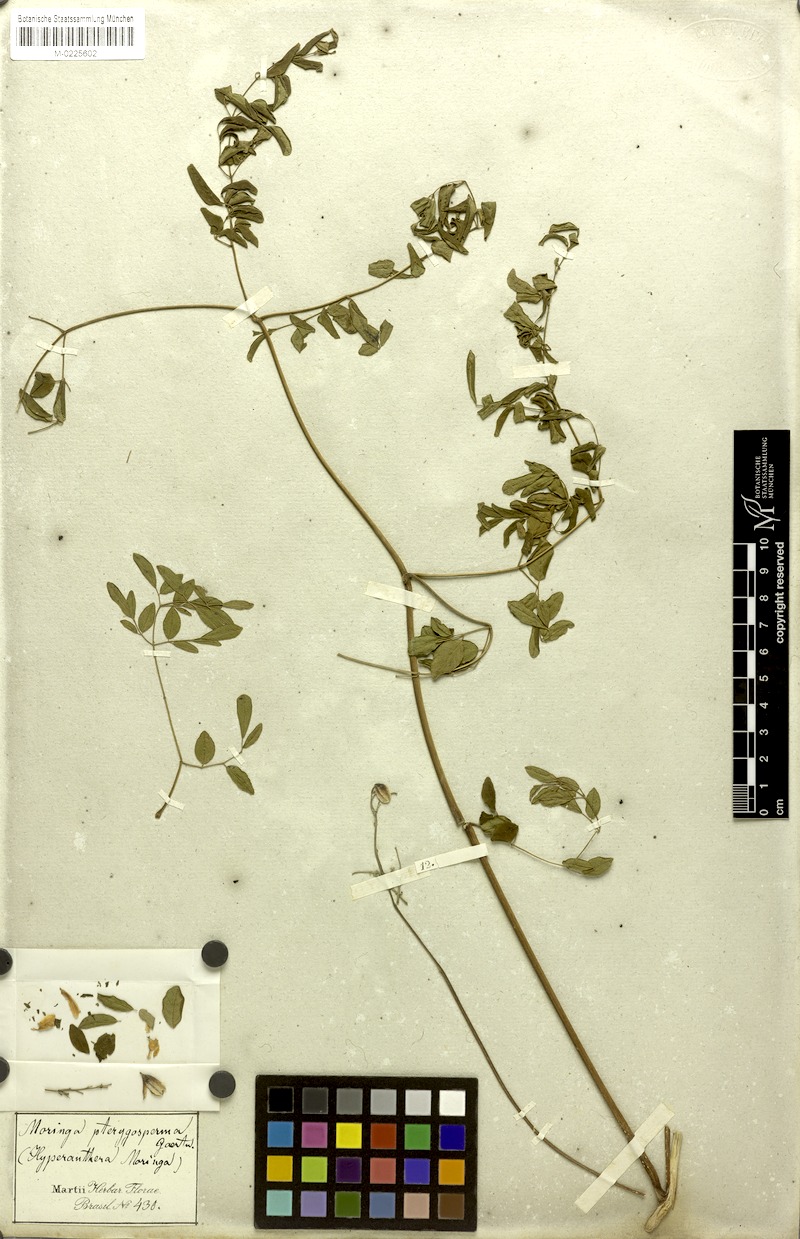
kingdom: Plantae
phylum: Tracheophyta
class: Magnoliopsida
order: Brassicales
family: Moringaceae
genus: Moringa
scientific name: Moringa oleifera
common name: Horseradish-tree
